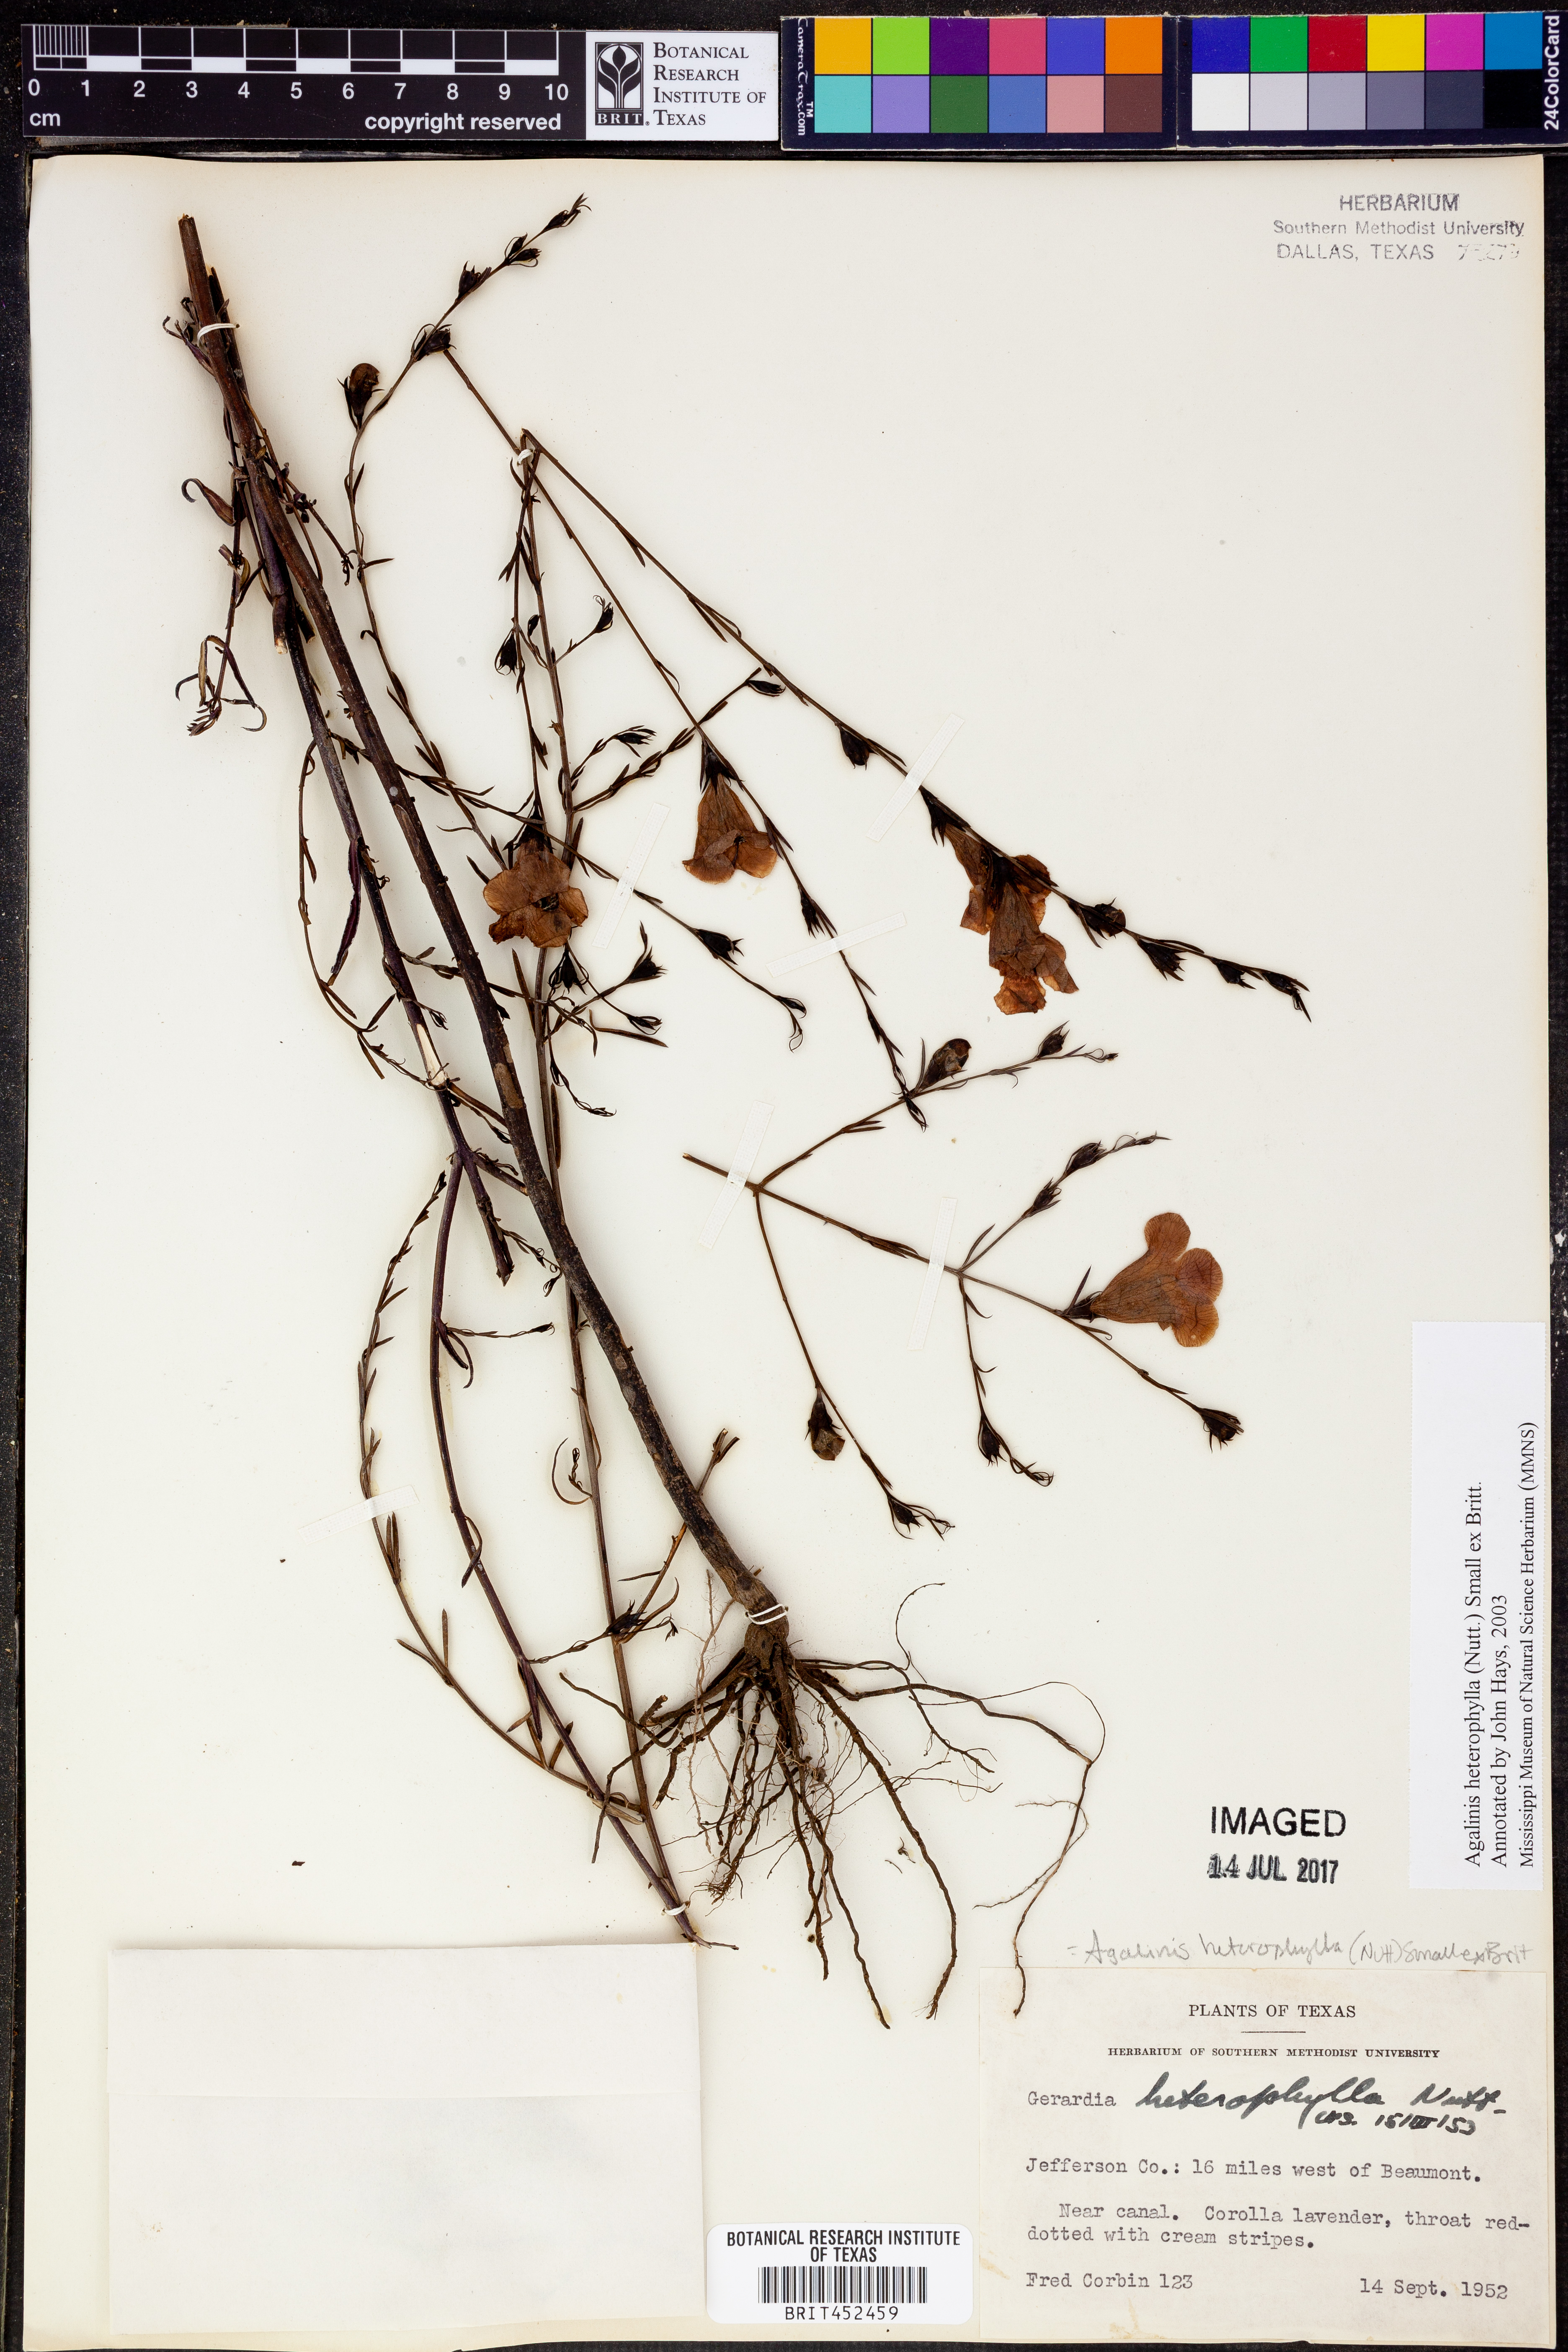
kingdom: Plantae
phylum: Tracheophyta
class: Magnoliopsida
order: Lamiales
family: Orobanchaceae
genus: Agalinis
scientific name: Agalinis heterophylla
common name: Prairie agalinis
